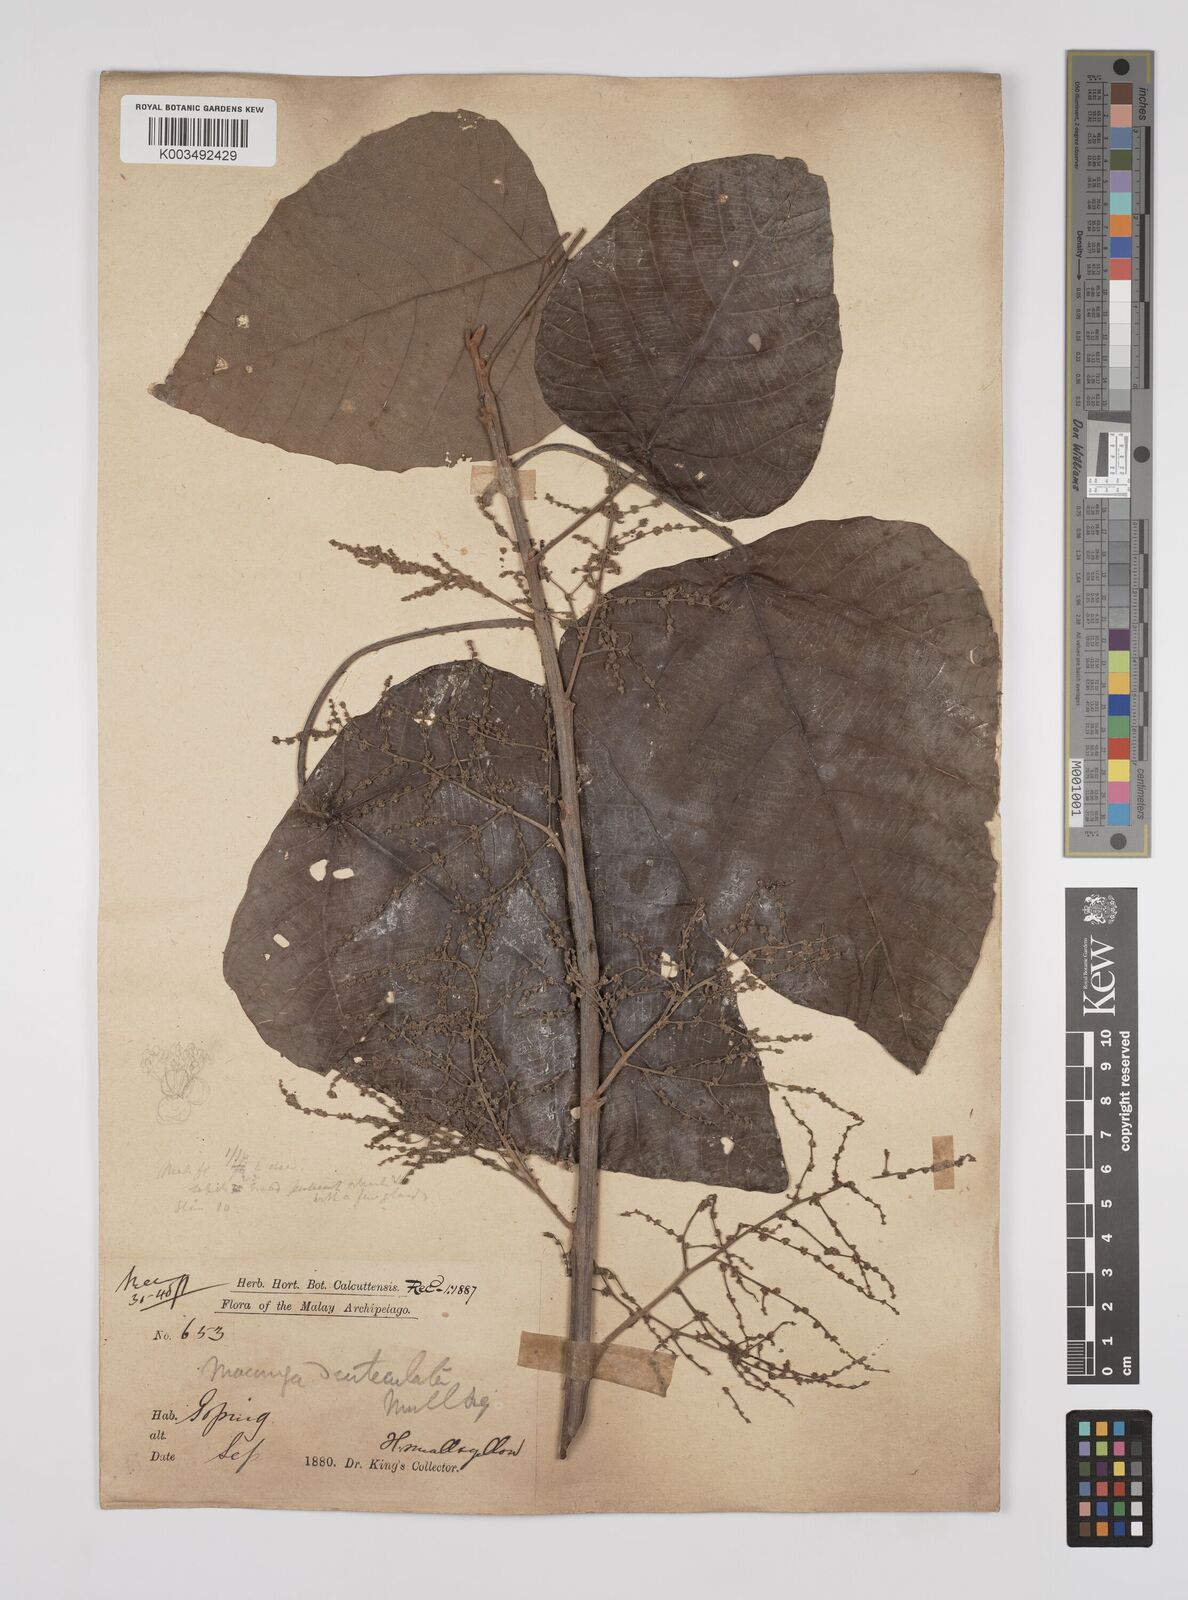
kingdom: Plantae
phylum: Tracheophyta
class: Magnoliopsida
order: Malpighiales
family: Euphorbiaceae
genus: Macaranga
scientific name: Macaranga denticulata
